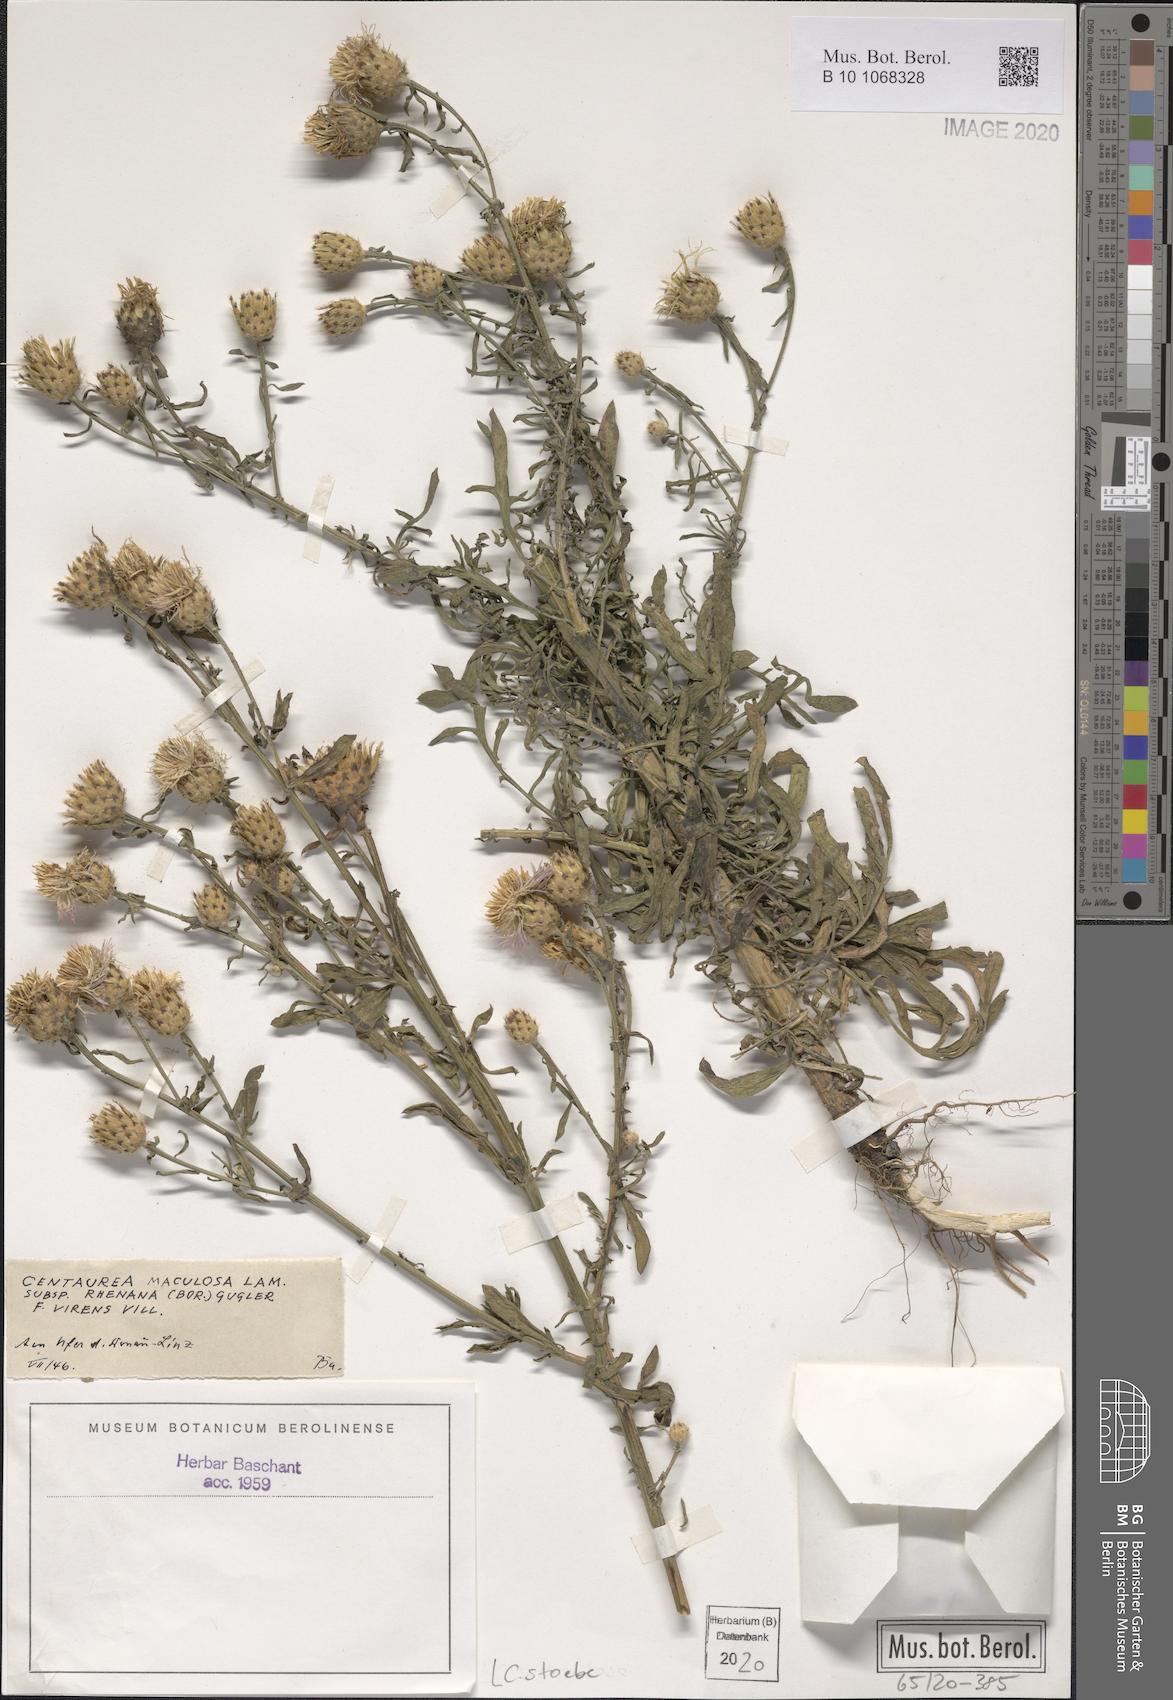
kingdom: Plantae
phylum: Tracheophyta
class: Magnoliopsida
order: Asterales
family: Asteraceae
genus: Centaurea
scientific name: Centaurea stoebe
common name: Spotted knapweed
